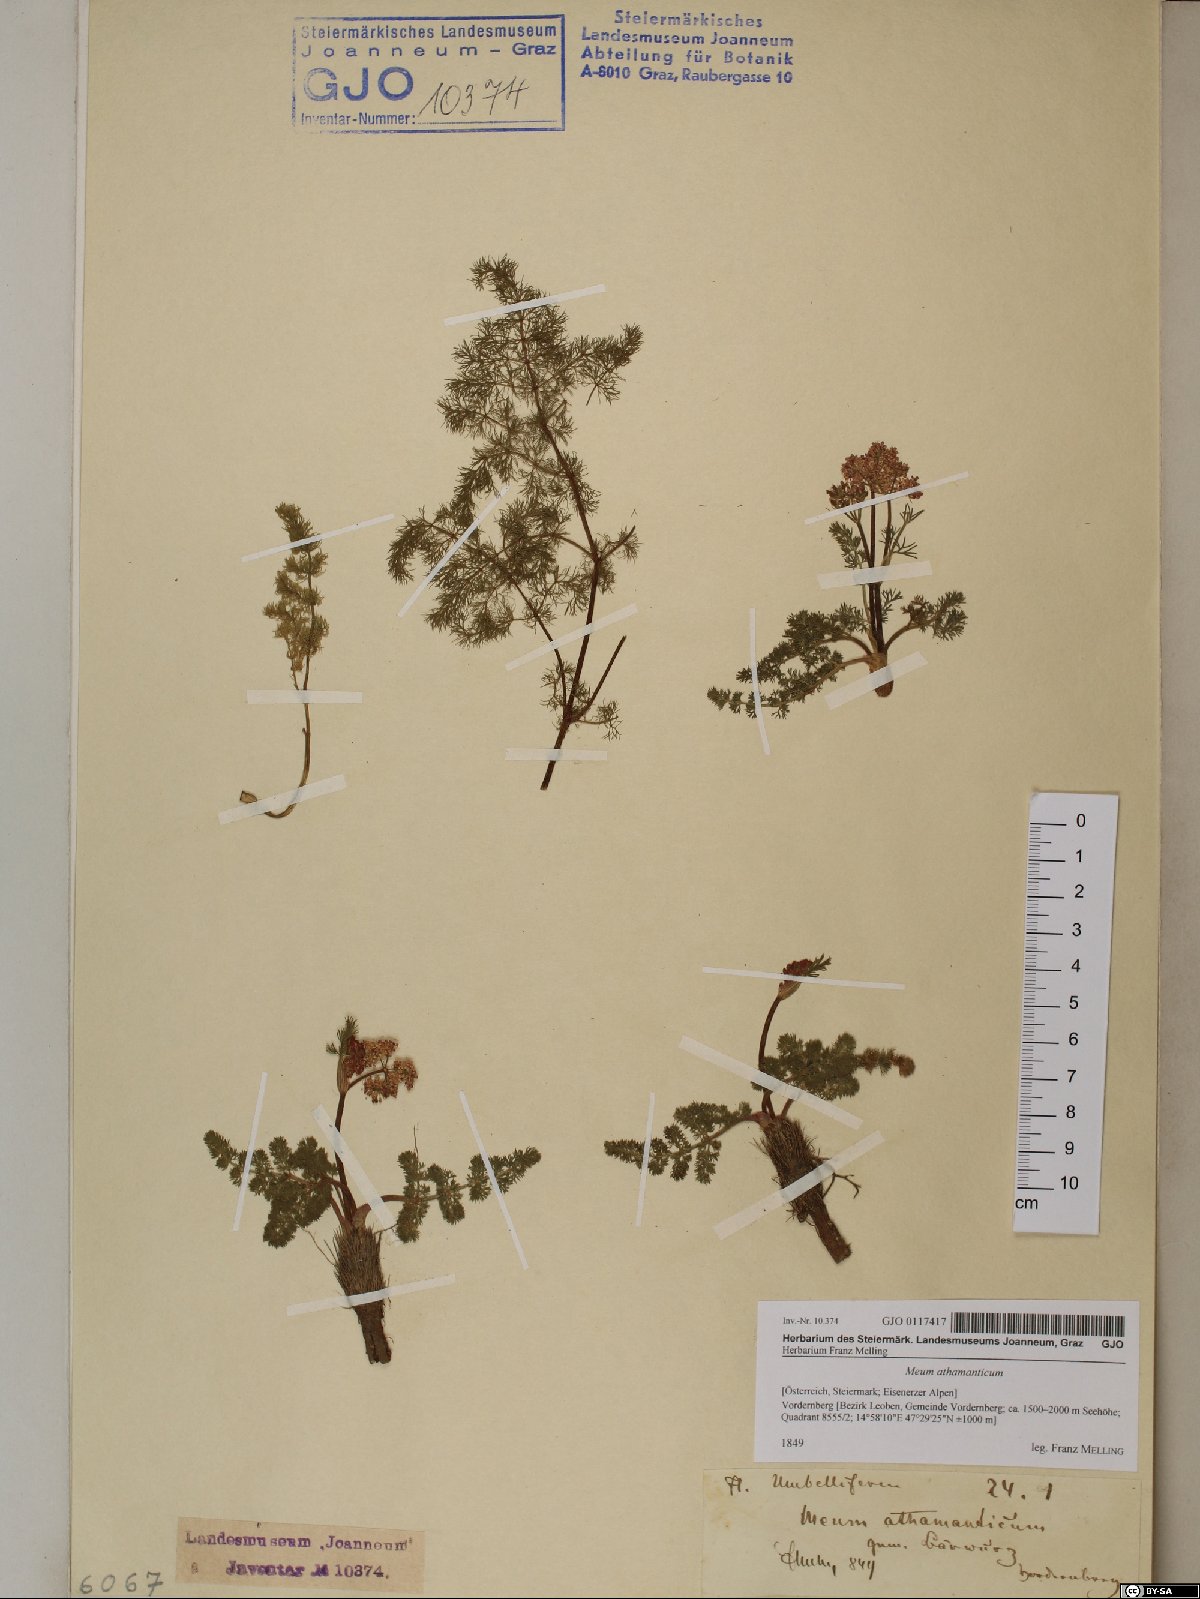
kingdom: Plantae
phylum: Tracheophyta
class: Magnoliopsida
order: Apiales
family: Apiaceae
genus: Meum
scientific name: Meum athamanticum
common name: Spignel
